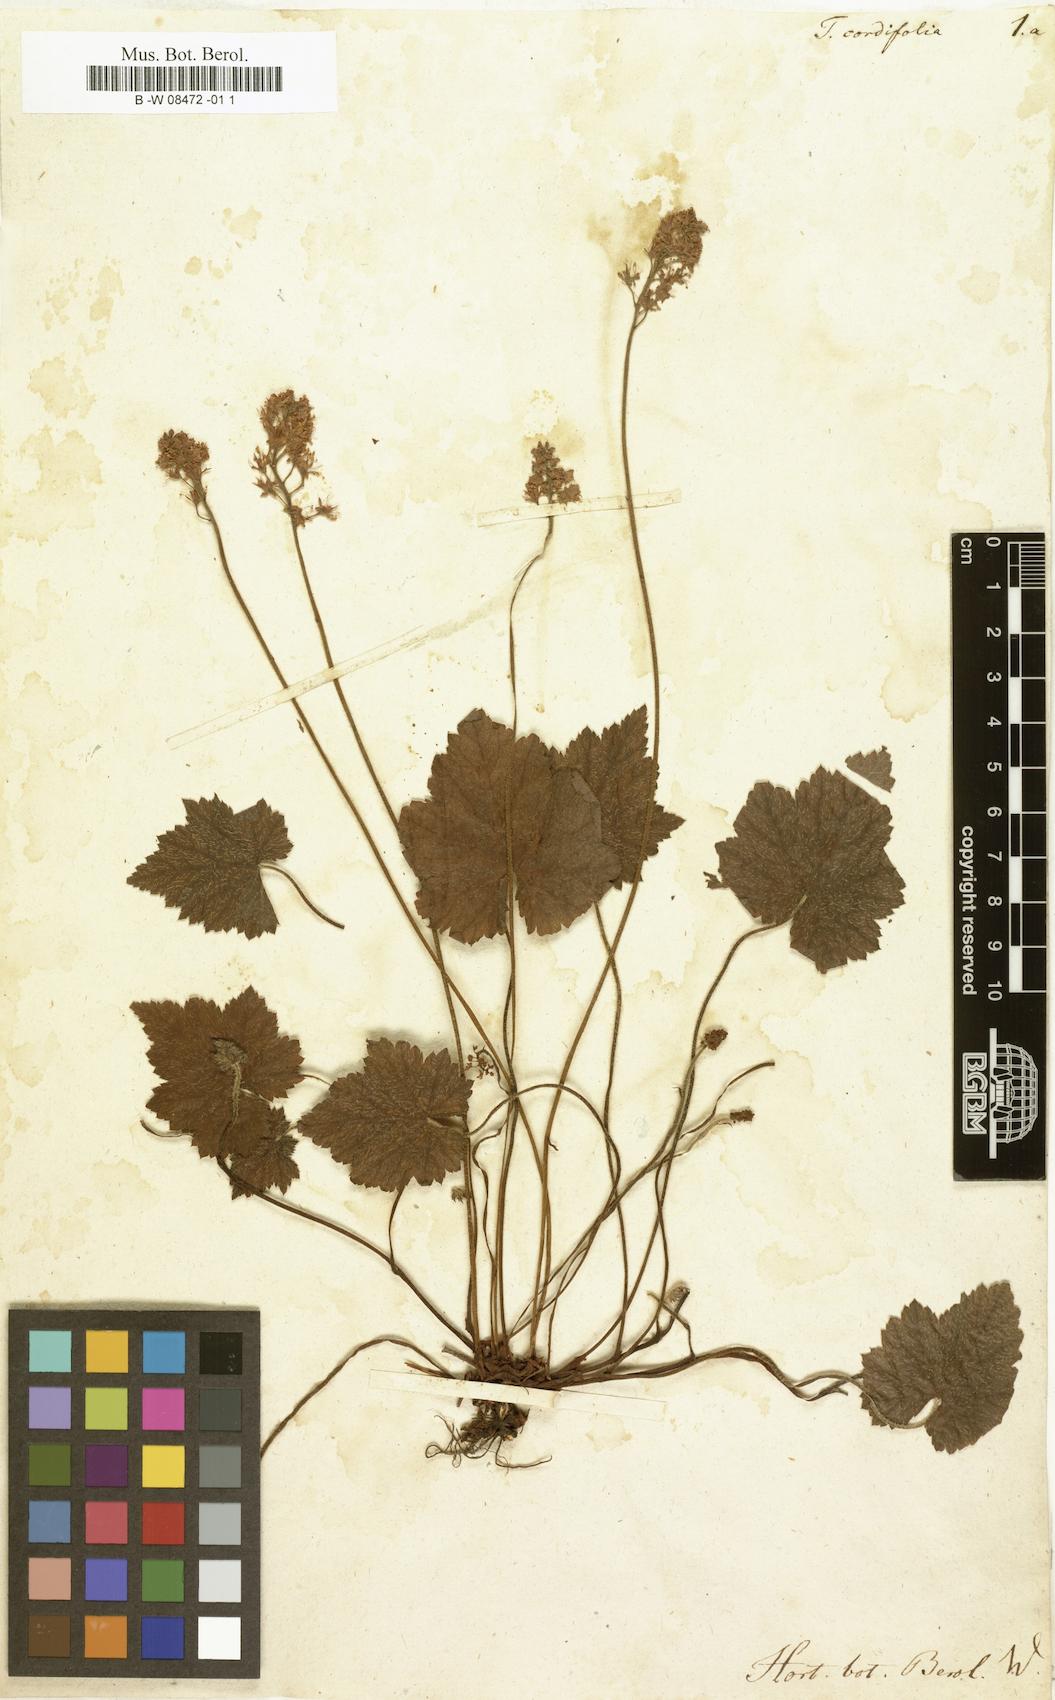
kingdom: Plantae
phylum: Tracheophyta
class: Magnoliopsida
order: Saxifragales
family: Saxifragaceae
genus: Tiarella
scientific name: Tiarella cordifolia
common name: Foamflower
